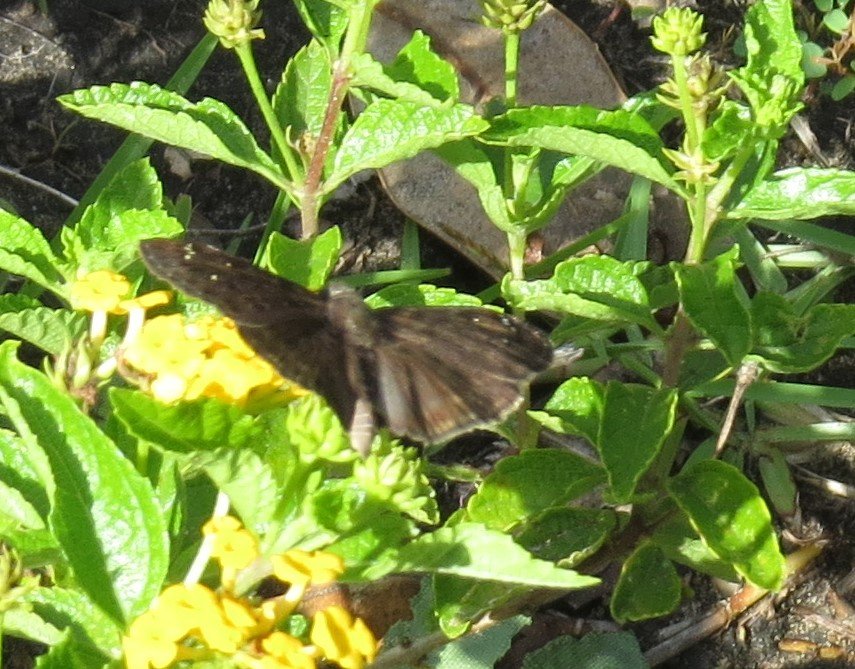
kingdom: Animalia
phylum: Arthropoda
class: Insecta
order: Lepidoptera
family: Hesperiidae
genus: Gesta
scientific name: Gesta
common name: Horace's Duskywing
